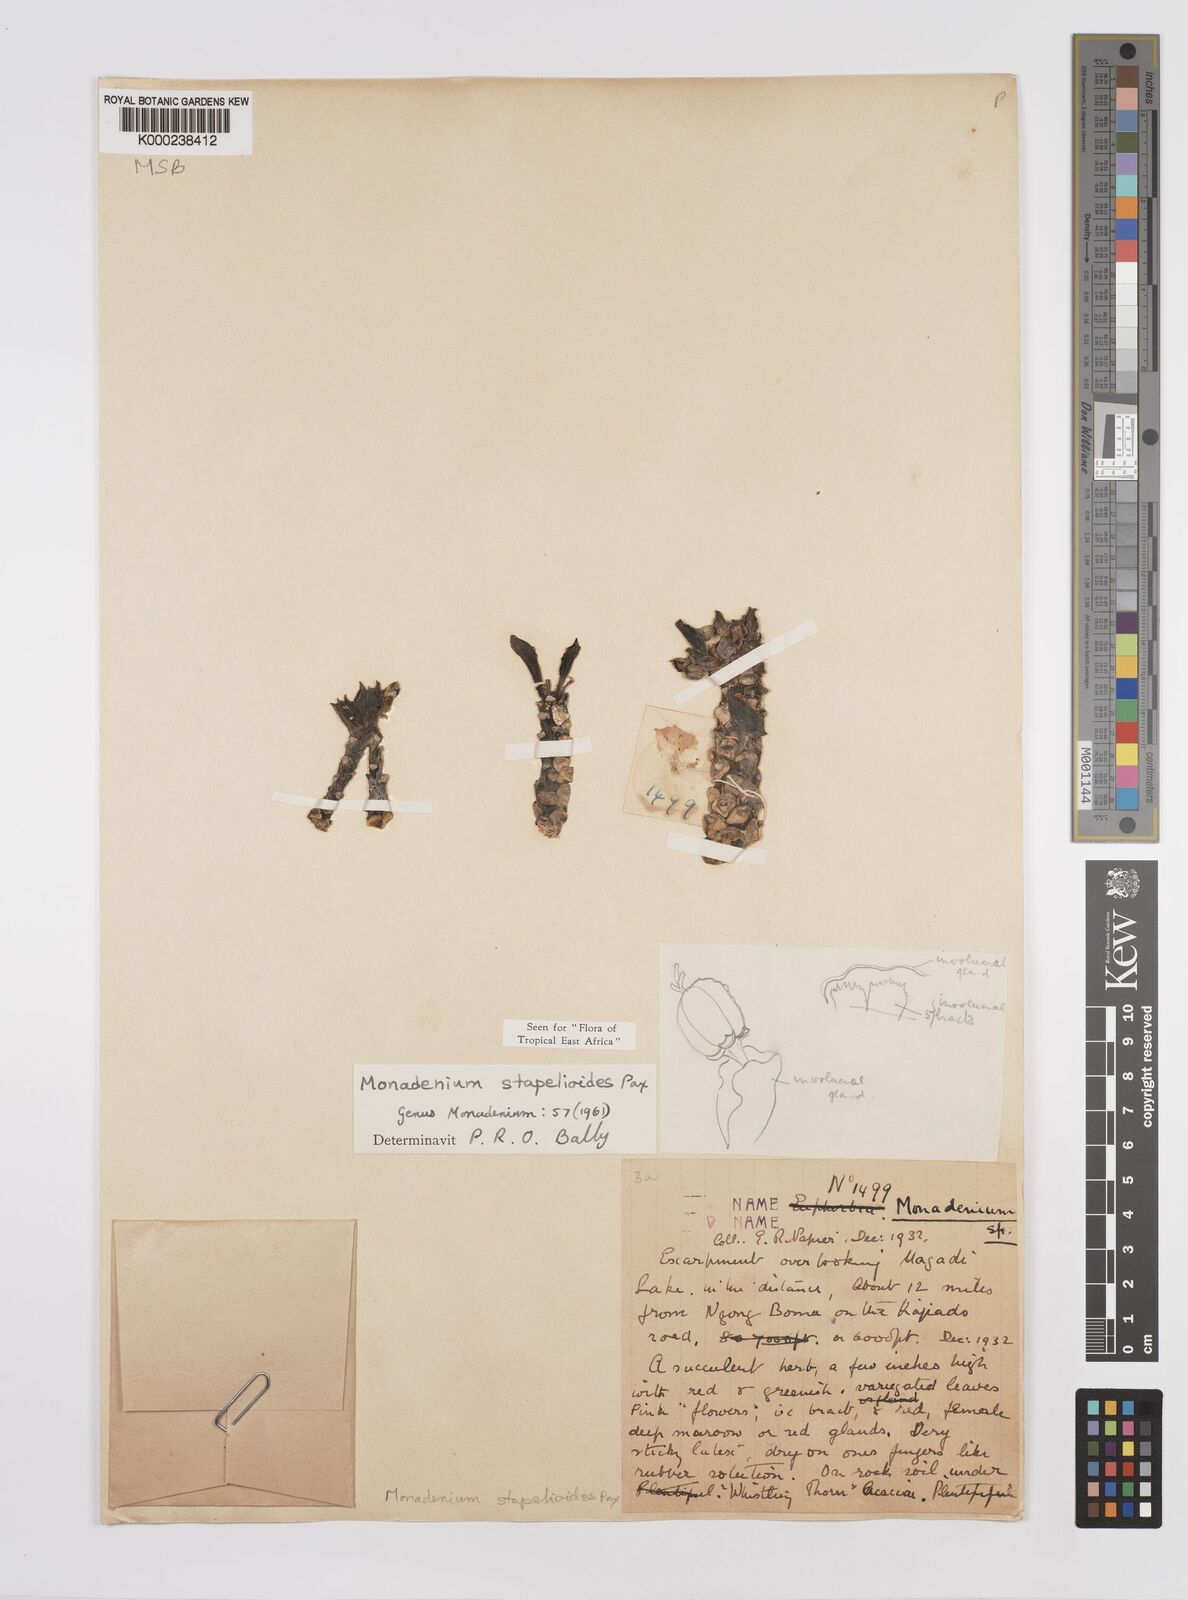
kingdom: Plantae
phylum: Tracheophyta
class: Magnoliopsida
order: Malpighiales
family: Euphorbiaceae
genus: Euphorbia
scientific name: Euphorbia succulenta
